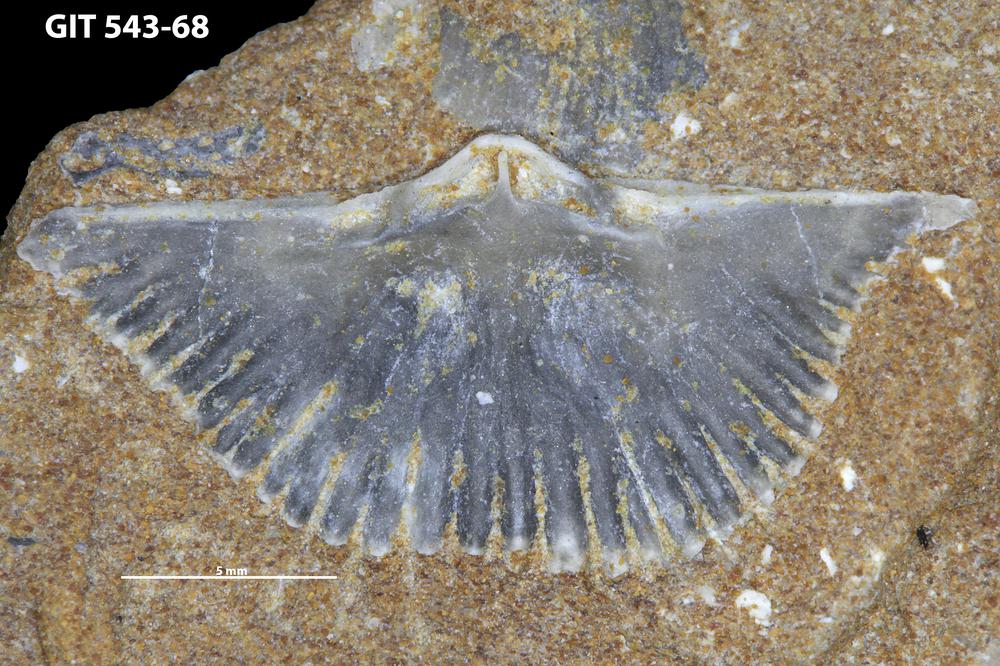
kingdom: Animalia
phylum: Brachiopoda
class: Rhynchonellata
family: Clitambonitidae
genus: Vellamo
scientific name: Vellamo
